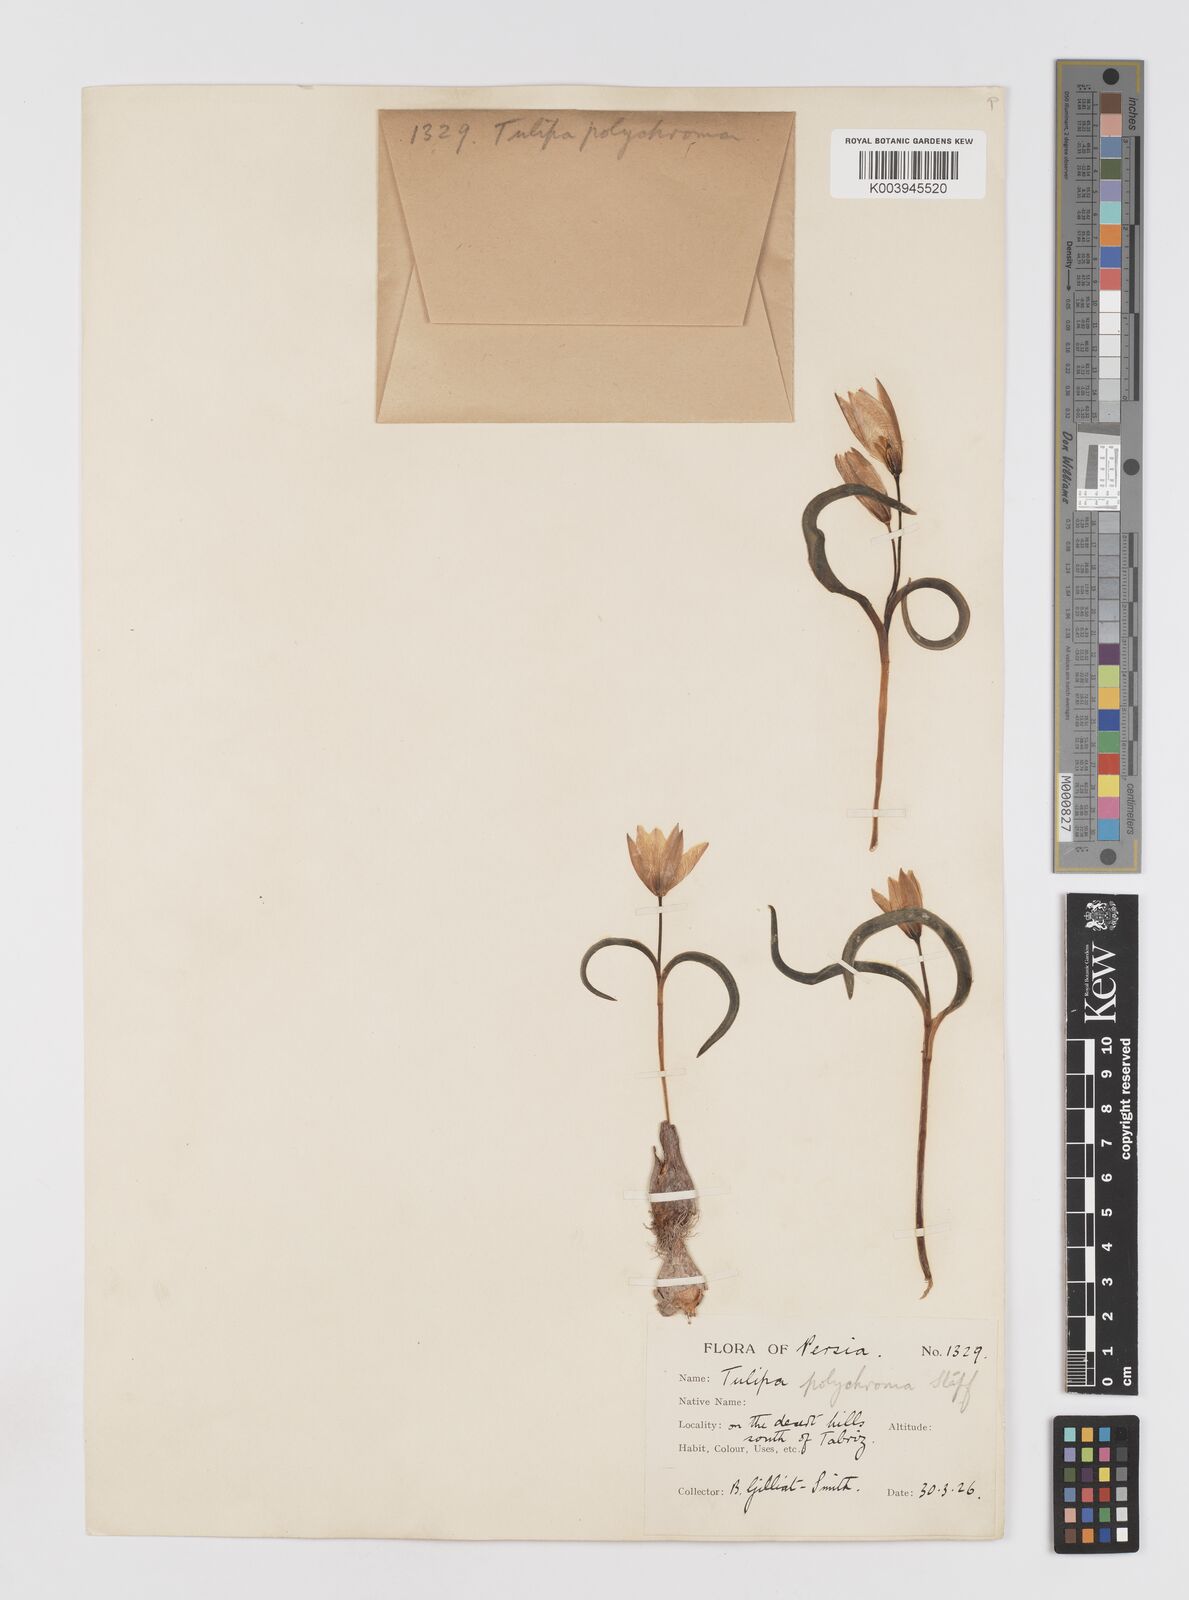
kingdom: Plantae
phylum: Tracheophyta
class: Liliopsida
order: Liliales
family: Liliaceae
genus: Tulipa
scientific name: Tulipa biflora
